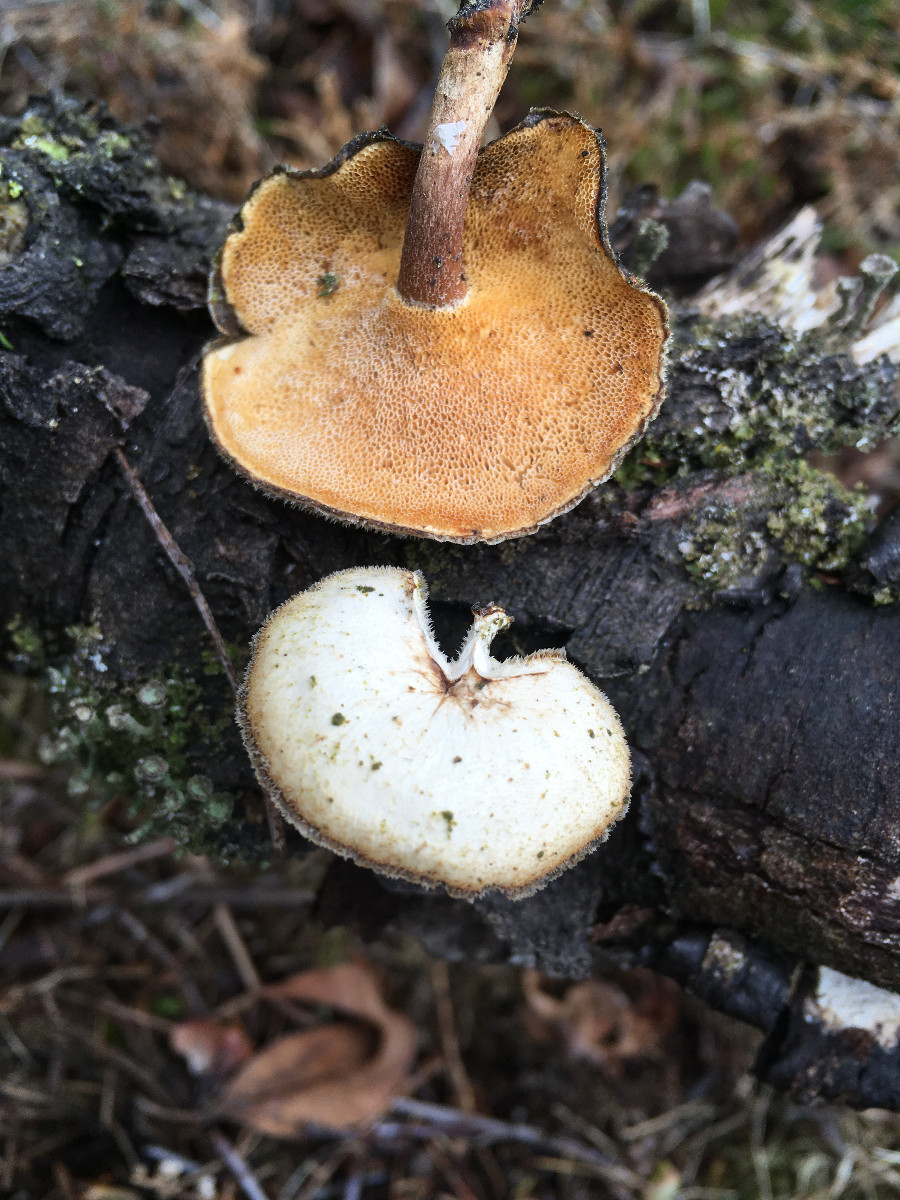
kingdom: Fungi
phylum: Basidiomycota
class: Agaricomycetes
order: Polyporales
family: Polyporaceae
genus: Lentinus
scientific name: Lentinus brumalis
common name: vinter-stilkporesvamp
